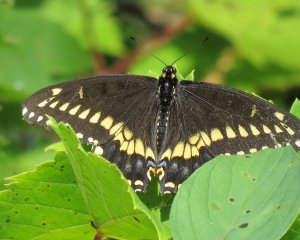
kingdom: Animalia
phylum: Arthropoda
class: Insecta
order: Lepidoptera
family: Papilionidae
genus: Papilio
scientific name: Papilio polyxenes
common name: Black Swallowtail
